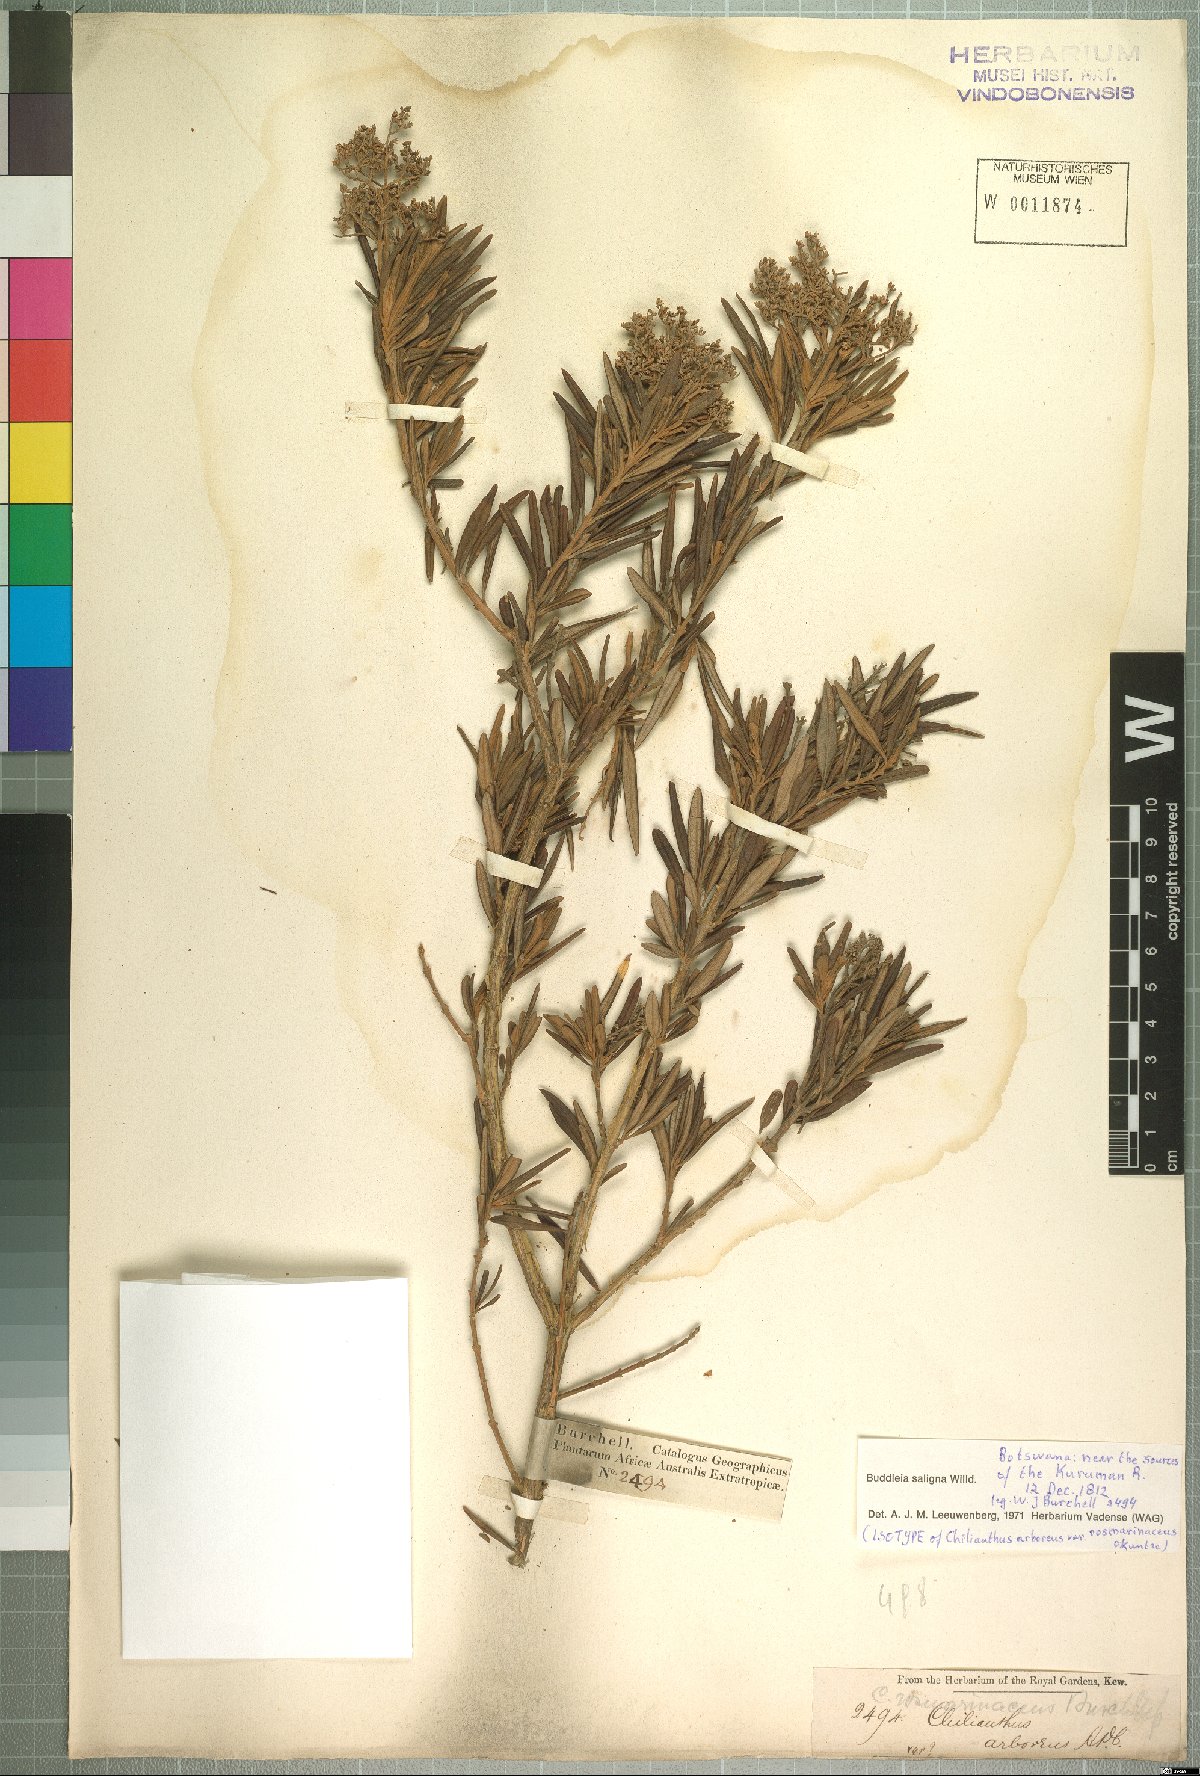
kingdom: Plantae
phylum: Tracheophyta
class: Magnoliopsida
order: Lamiales
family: Scrophulariaceae
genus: Buddleja
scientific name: Buddleja saligna
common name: False olive
